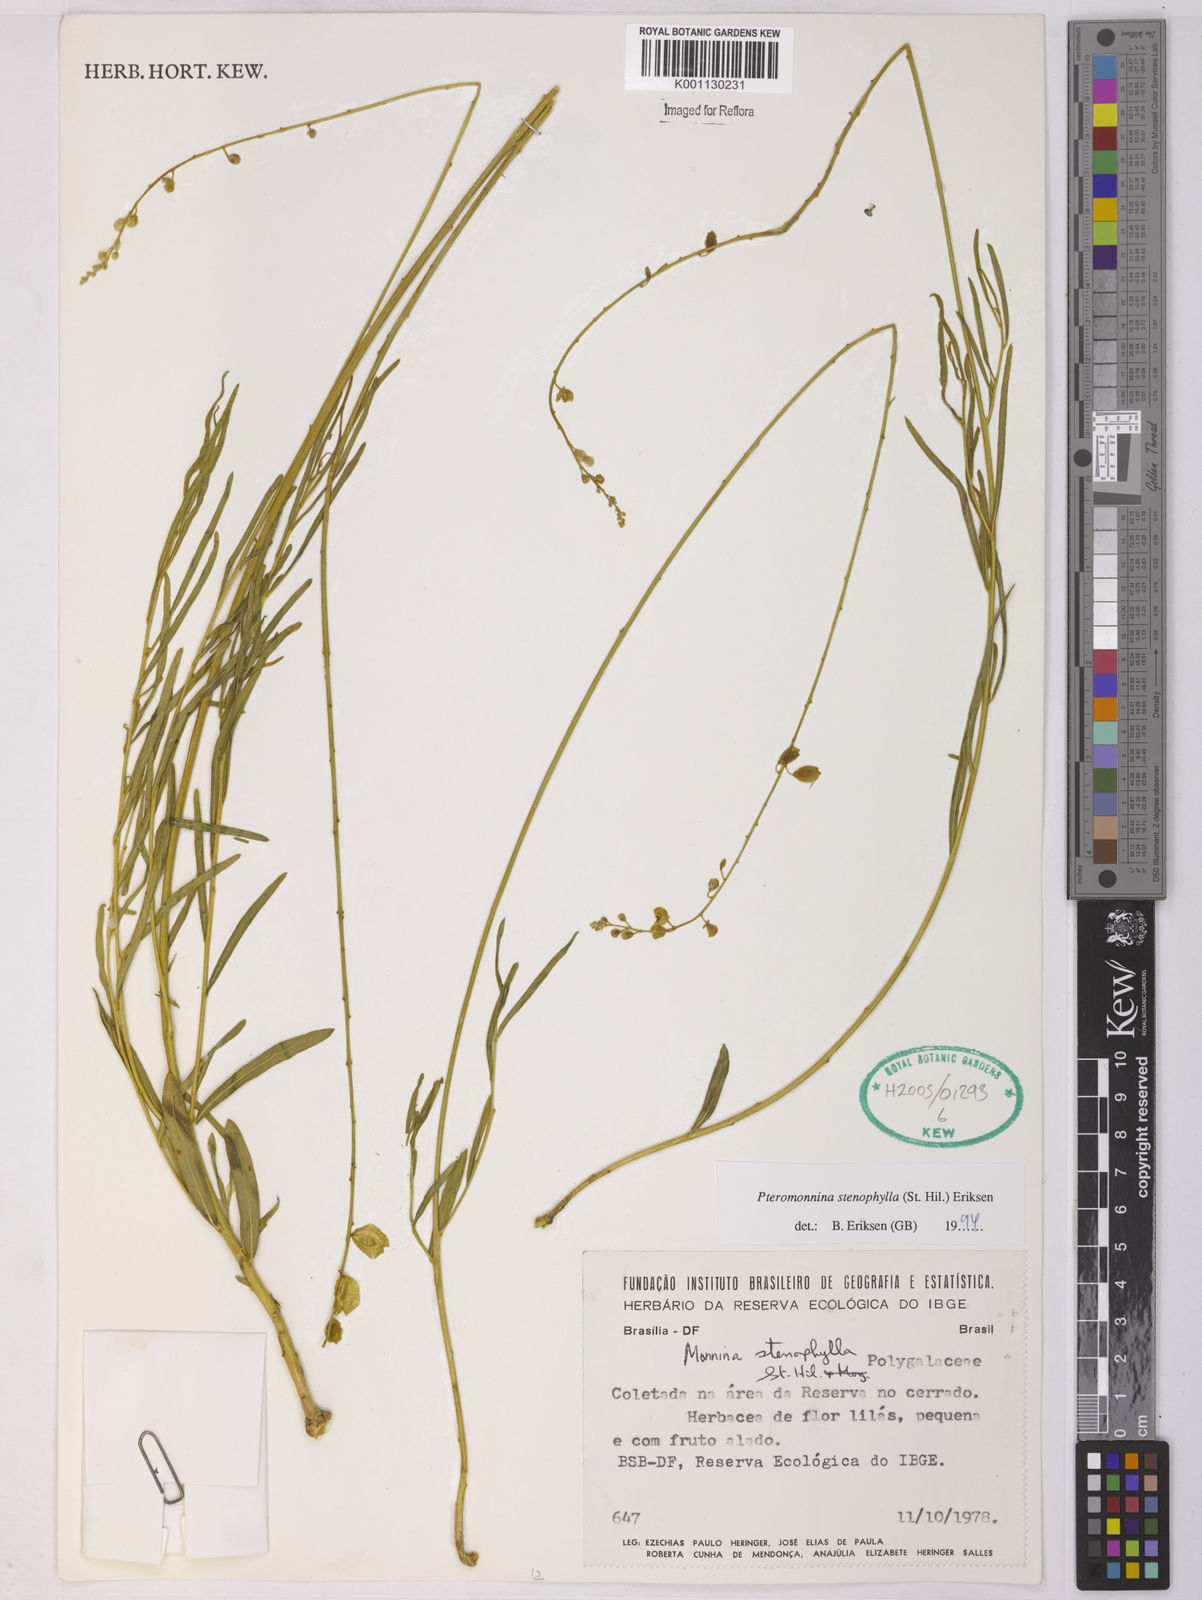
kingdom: Plantae
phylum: Tracheophyta
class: Magnoliopsida
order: Fabales
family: Polygalaceae
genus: Monnina
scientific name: Monnina stenophylla
